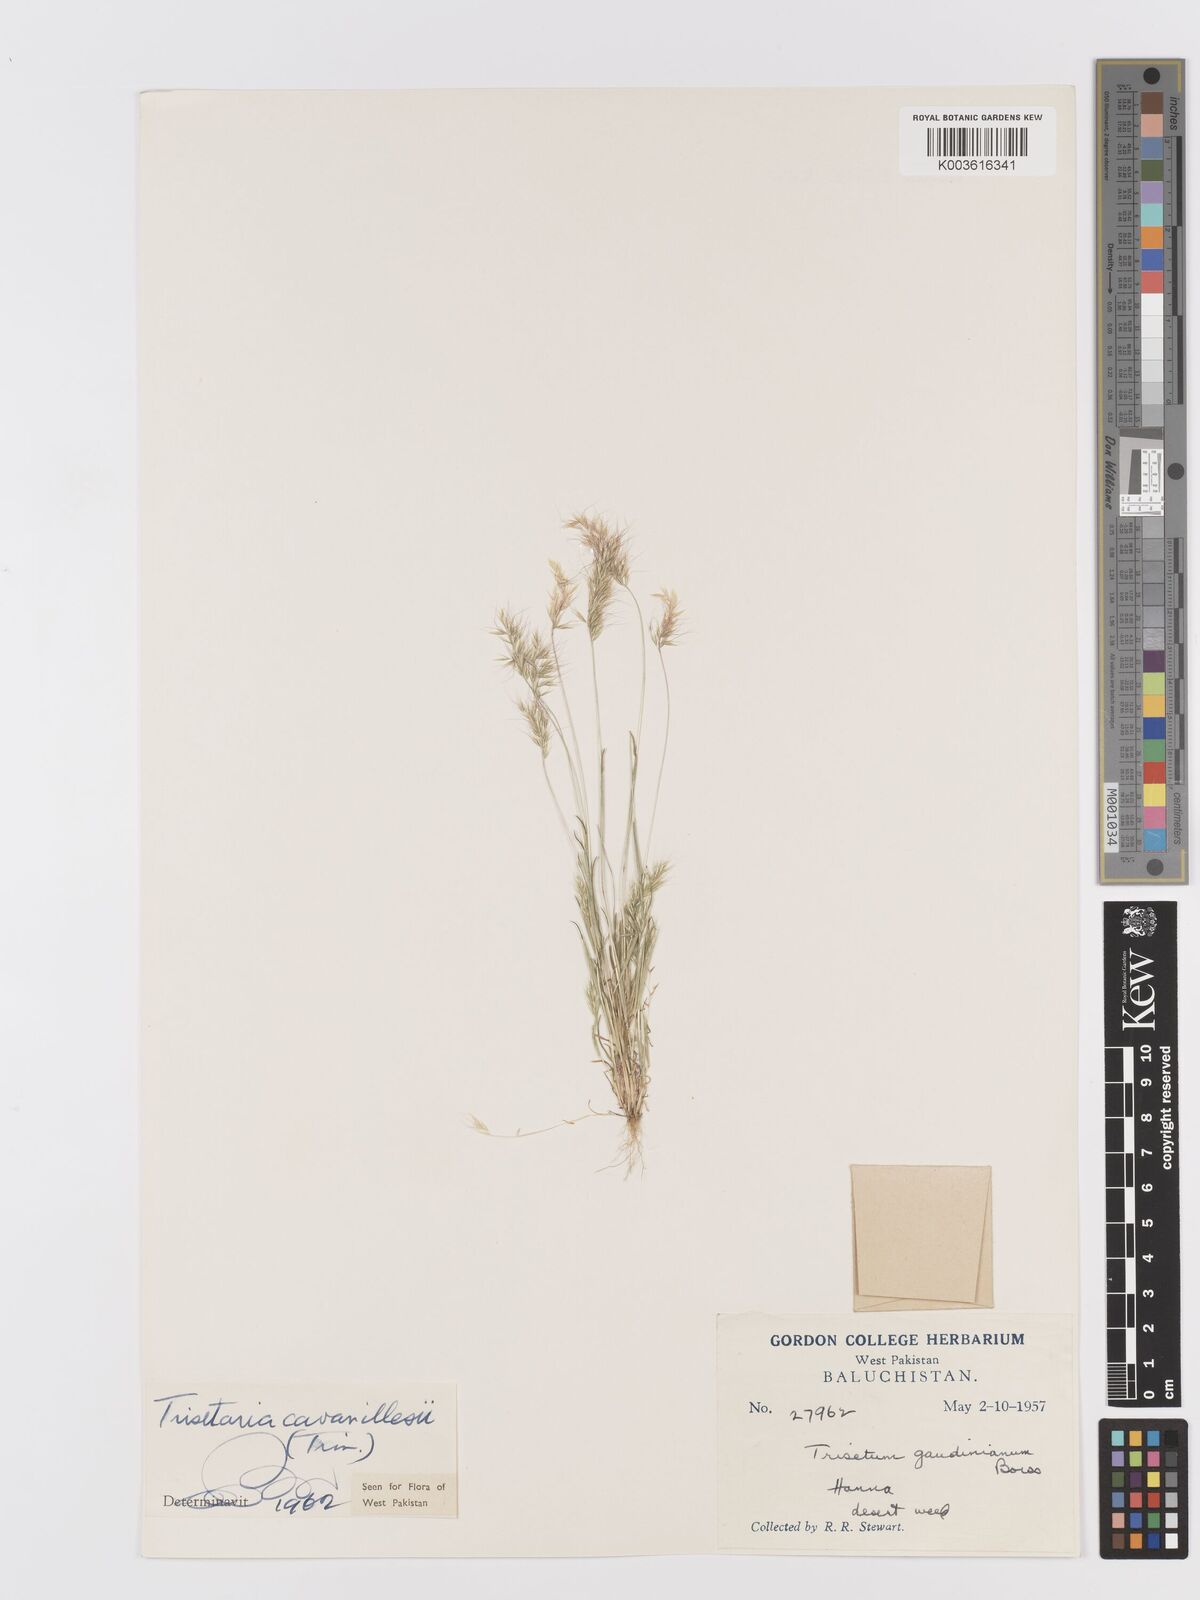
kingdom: Plantae
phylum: Tracheophyta
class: Liliopsida
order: Poales
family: Poaceae
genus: Trisetaria
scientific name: Trisetaria loeflingiana
